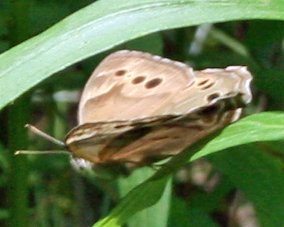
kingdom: Animalia
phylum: Arthropoda
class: Insecta
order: Lepidoptera
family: Nymphalidae
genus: Lethe
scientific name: Lethe anthedon
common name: Northern Pearly-Eye
